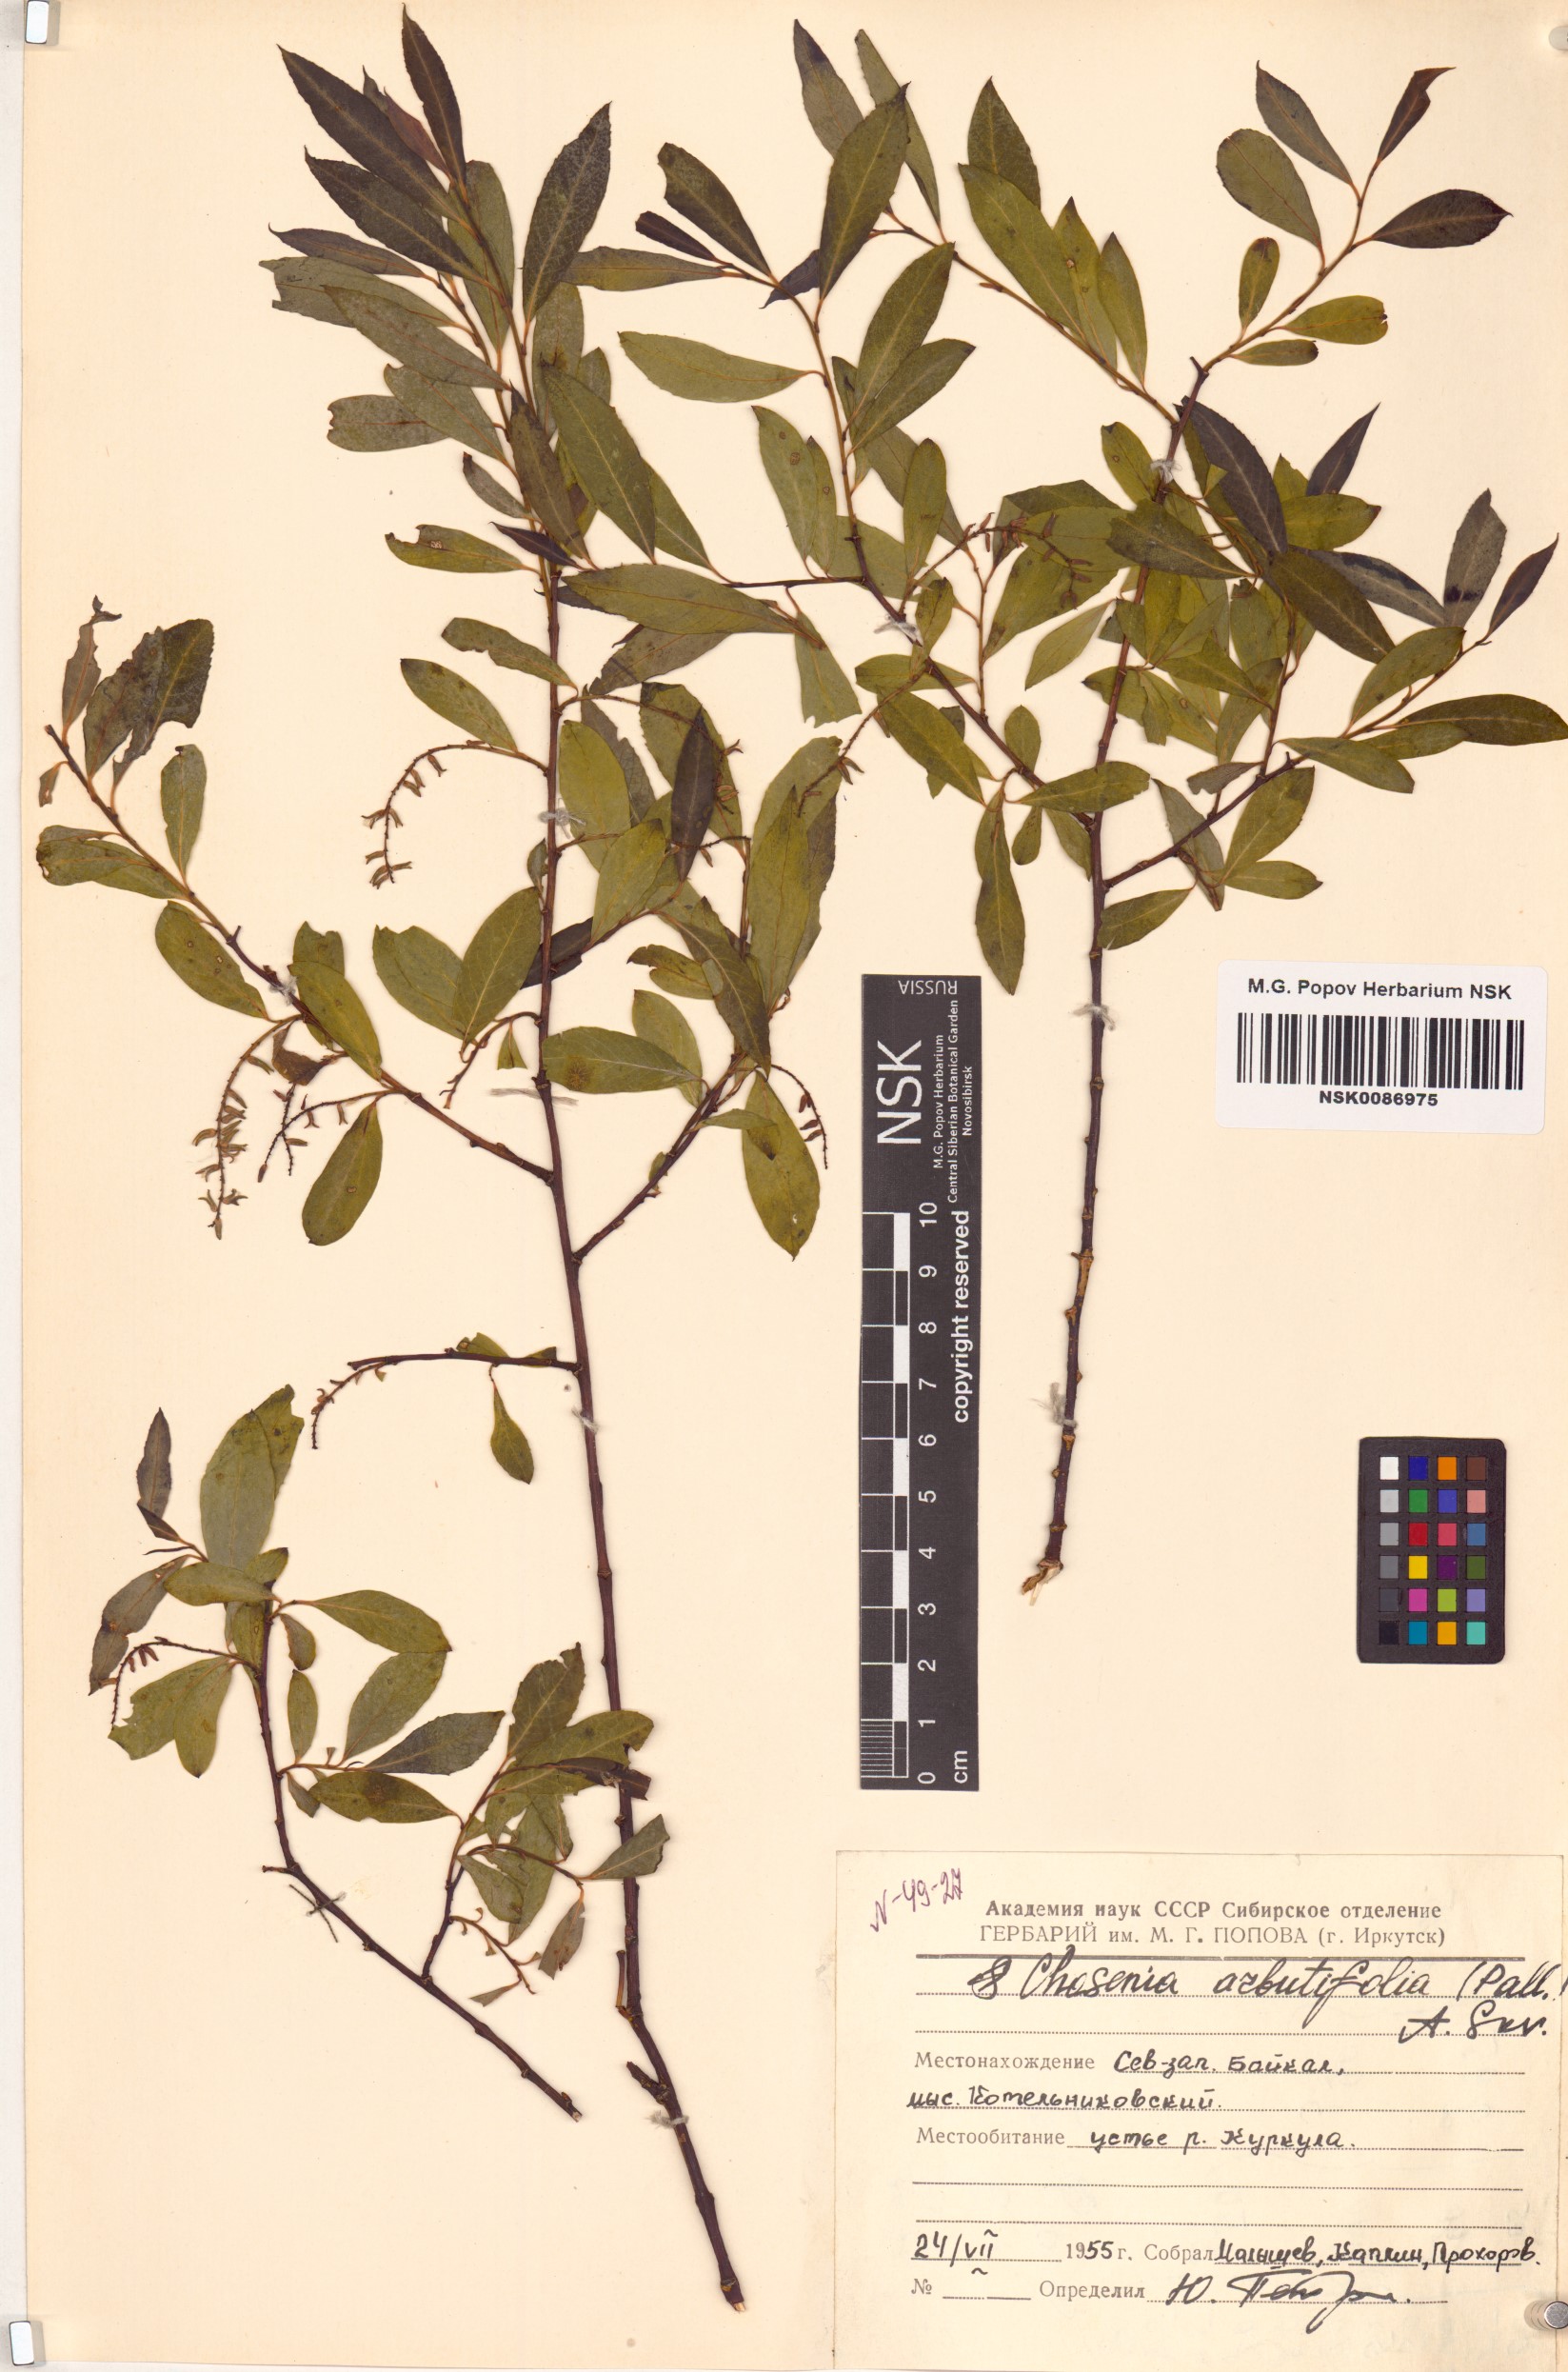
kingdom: Plantae
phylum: Tracheophyta
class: Magnoliopsida
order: Malpighiales
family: Salicaceae
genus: Chosenia
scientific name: Chosenia arbutifolia
